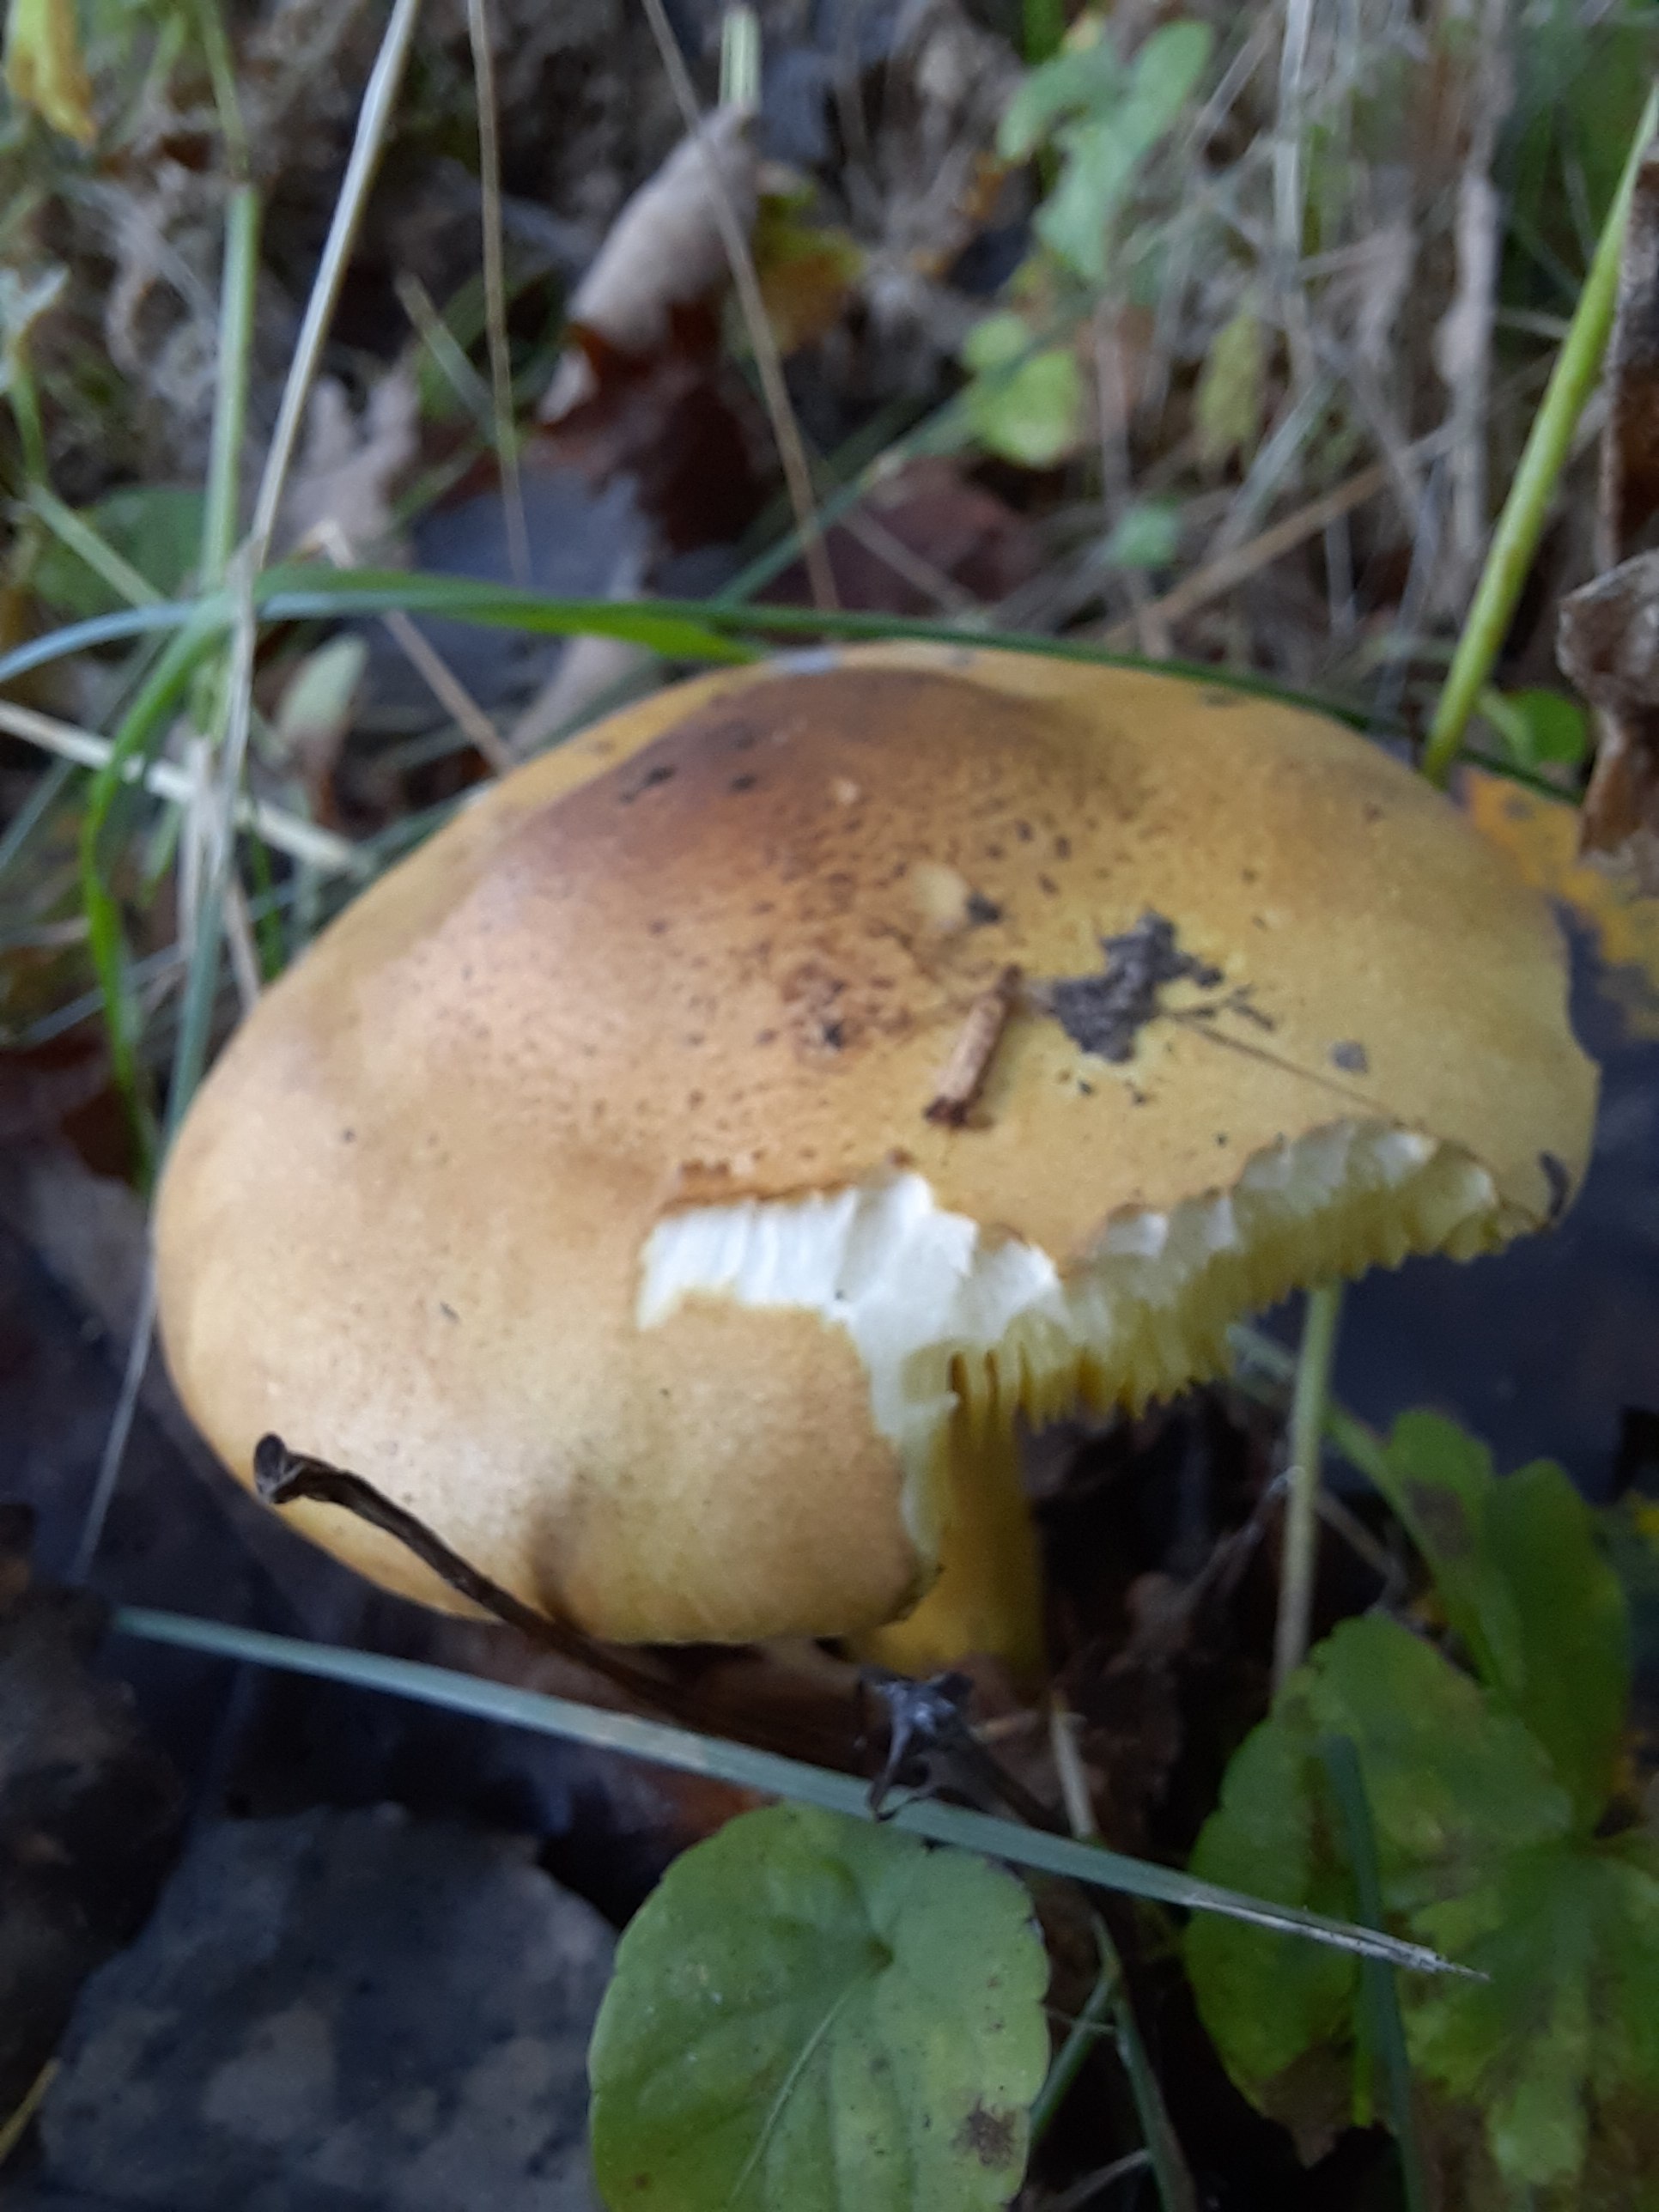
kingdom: Fungi
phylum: Basidiomycota
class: Agaricomycetes
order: Agaricales
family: Tricholomataceae
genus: Tricholoma
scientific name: Tricholoma frondosae
